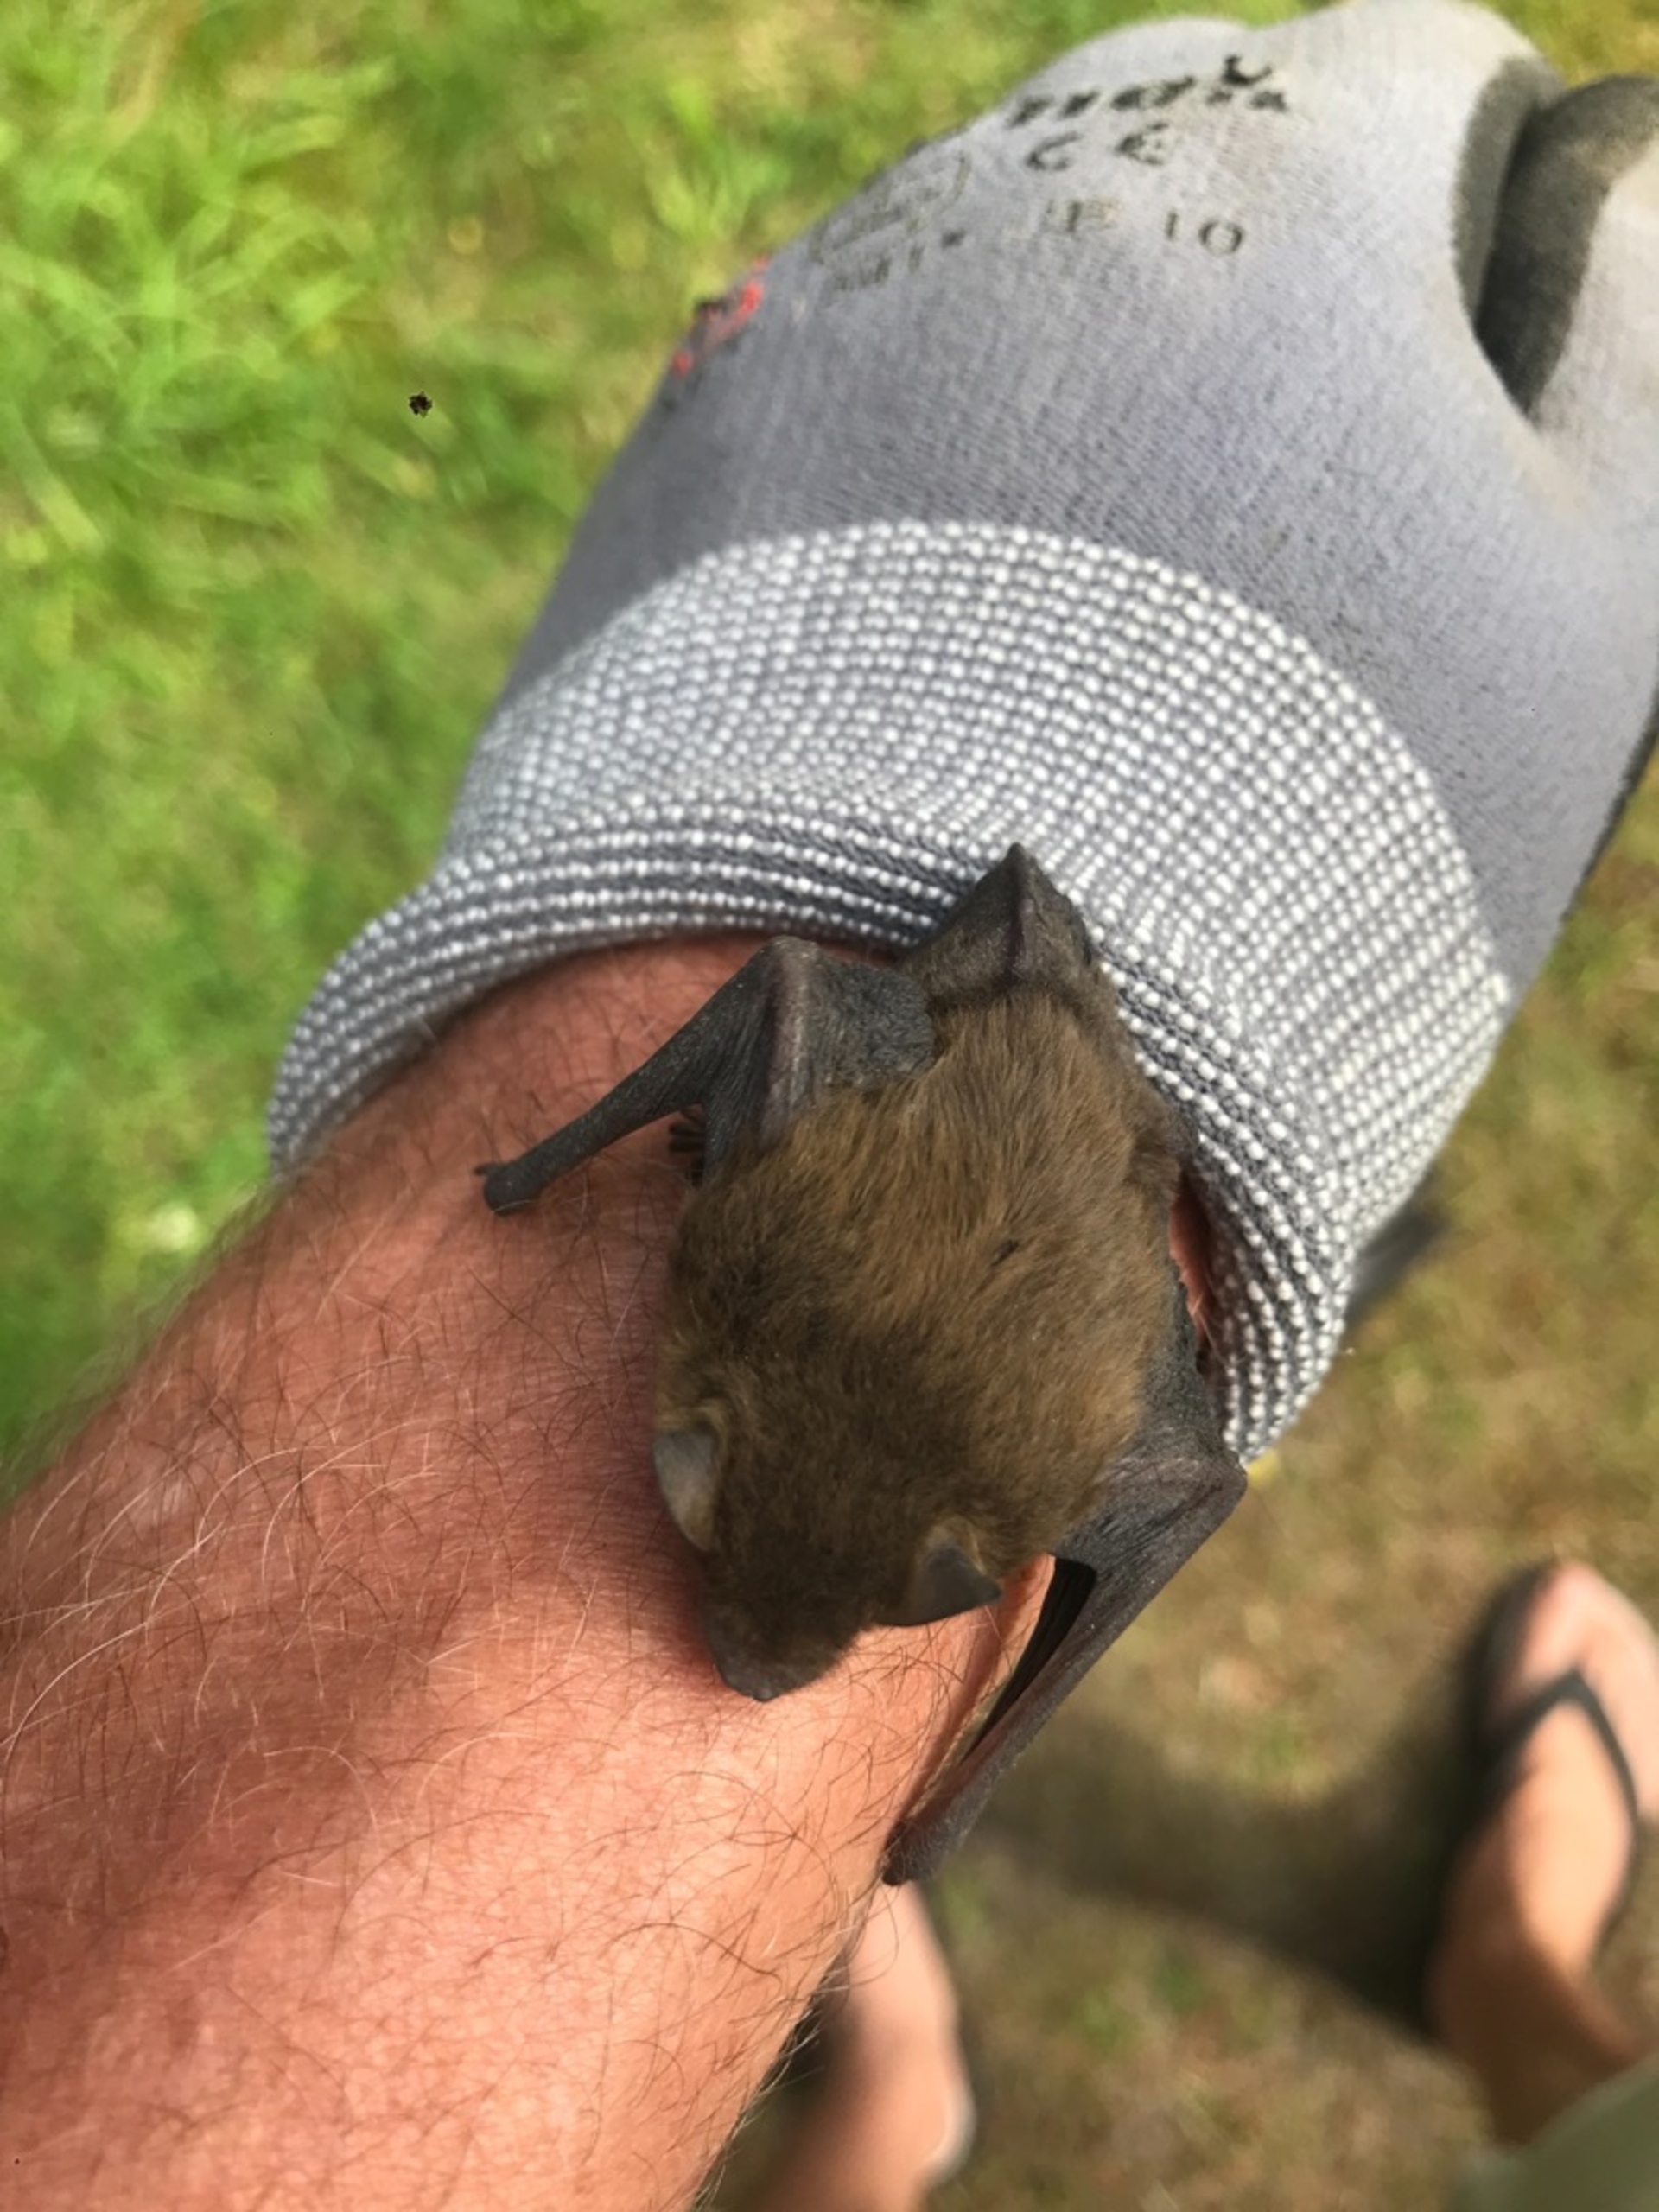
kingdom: Animalia
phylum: Chordata
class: Mammalia
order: Chiroptera
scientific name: Chiroptera
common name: Flagermus
